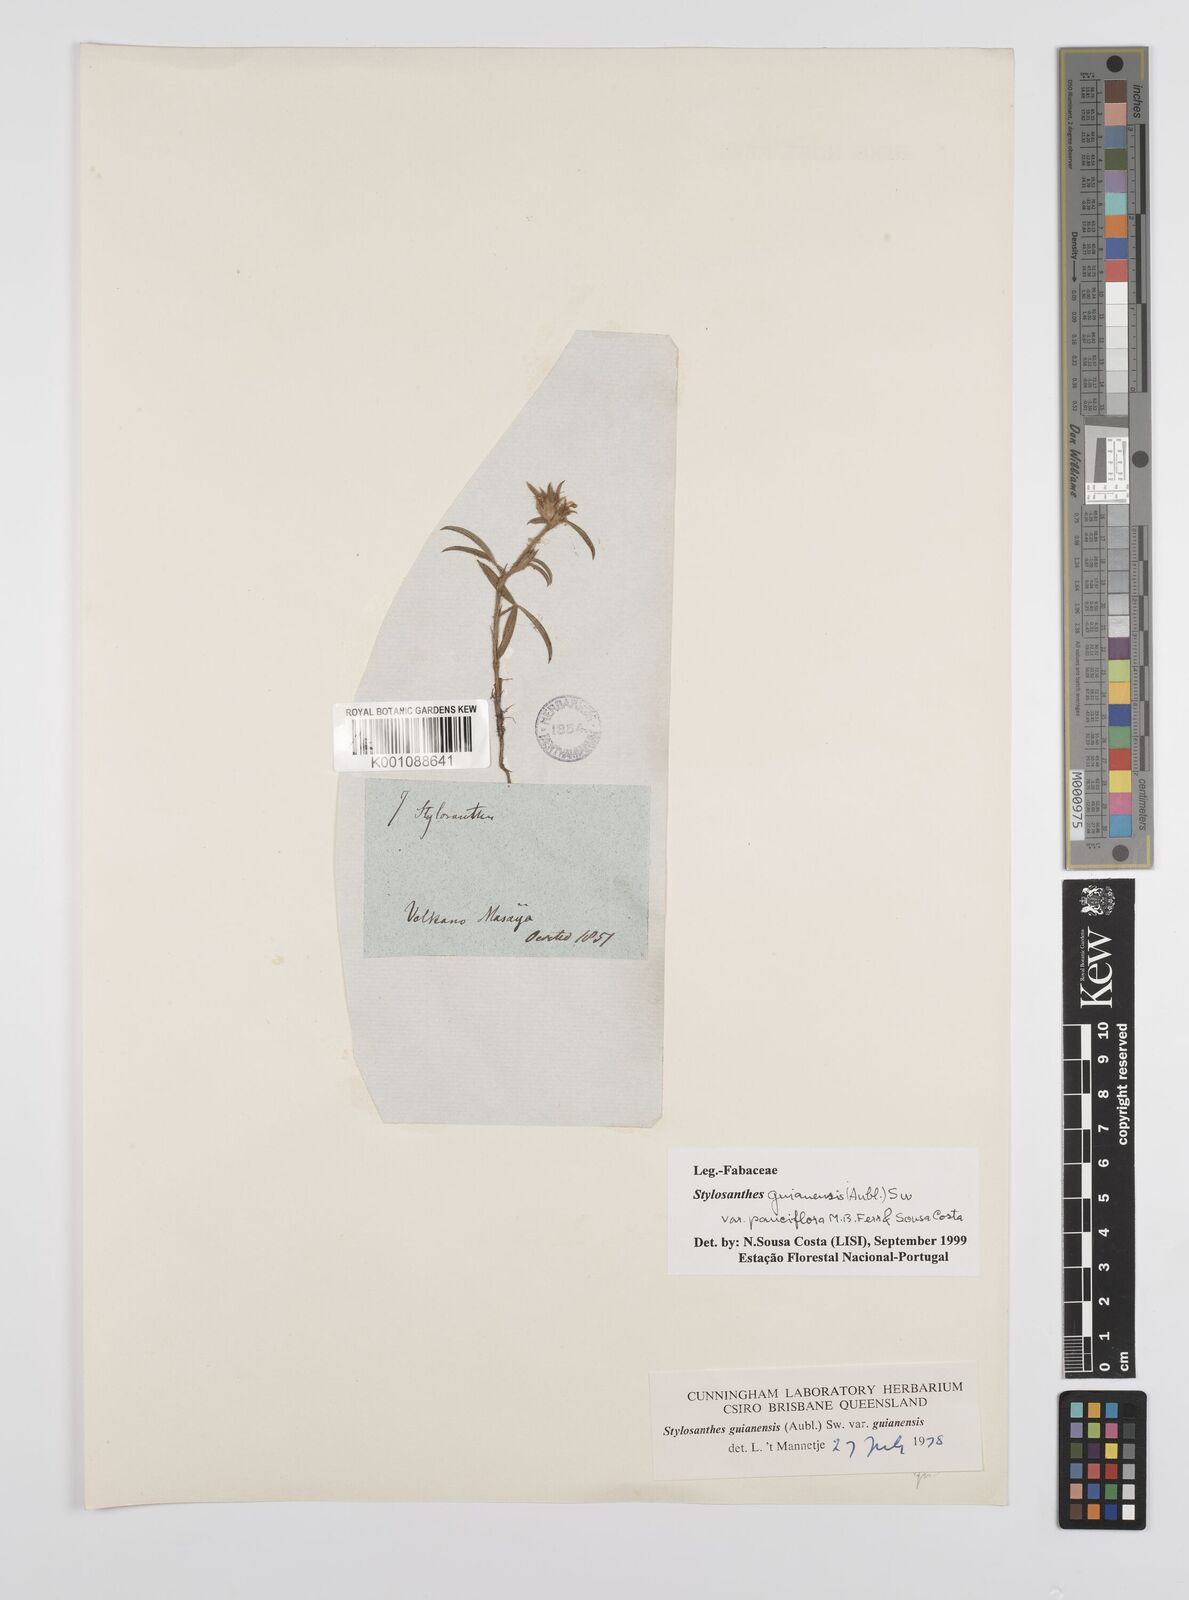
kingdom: Plantae
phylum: Tracheophyta
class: Magnoliopsida
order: Fabales
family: Fabaceae
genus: Stylosanthes
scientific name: Stylosanthes guianensis
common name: Pencil flower
